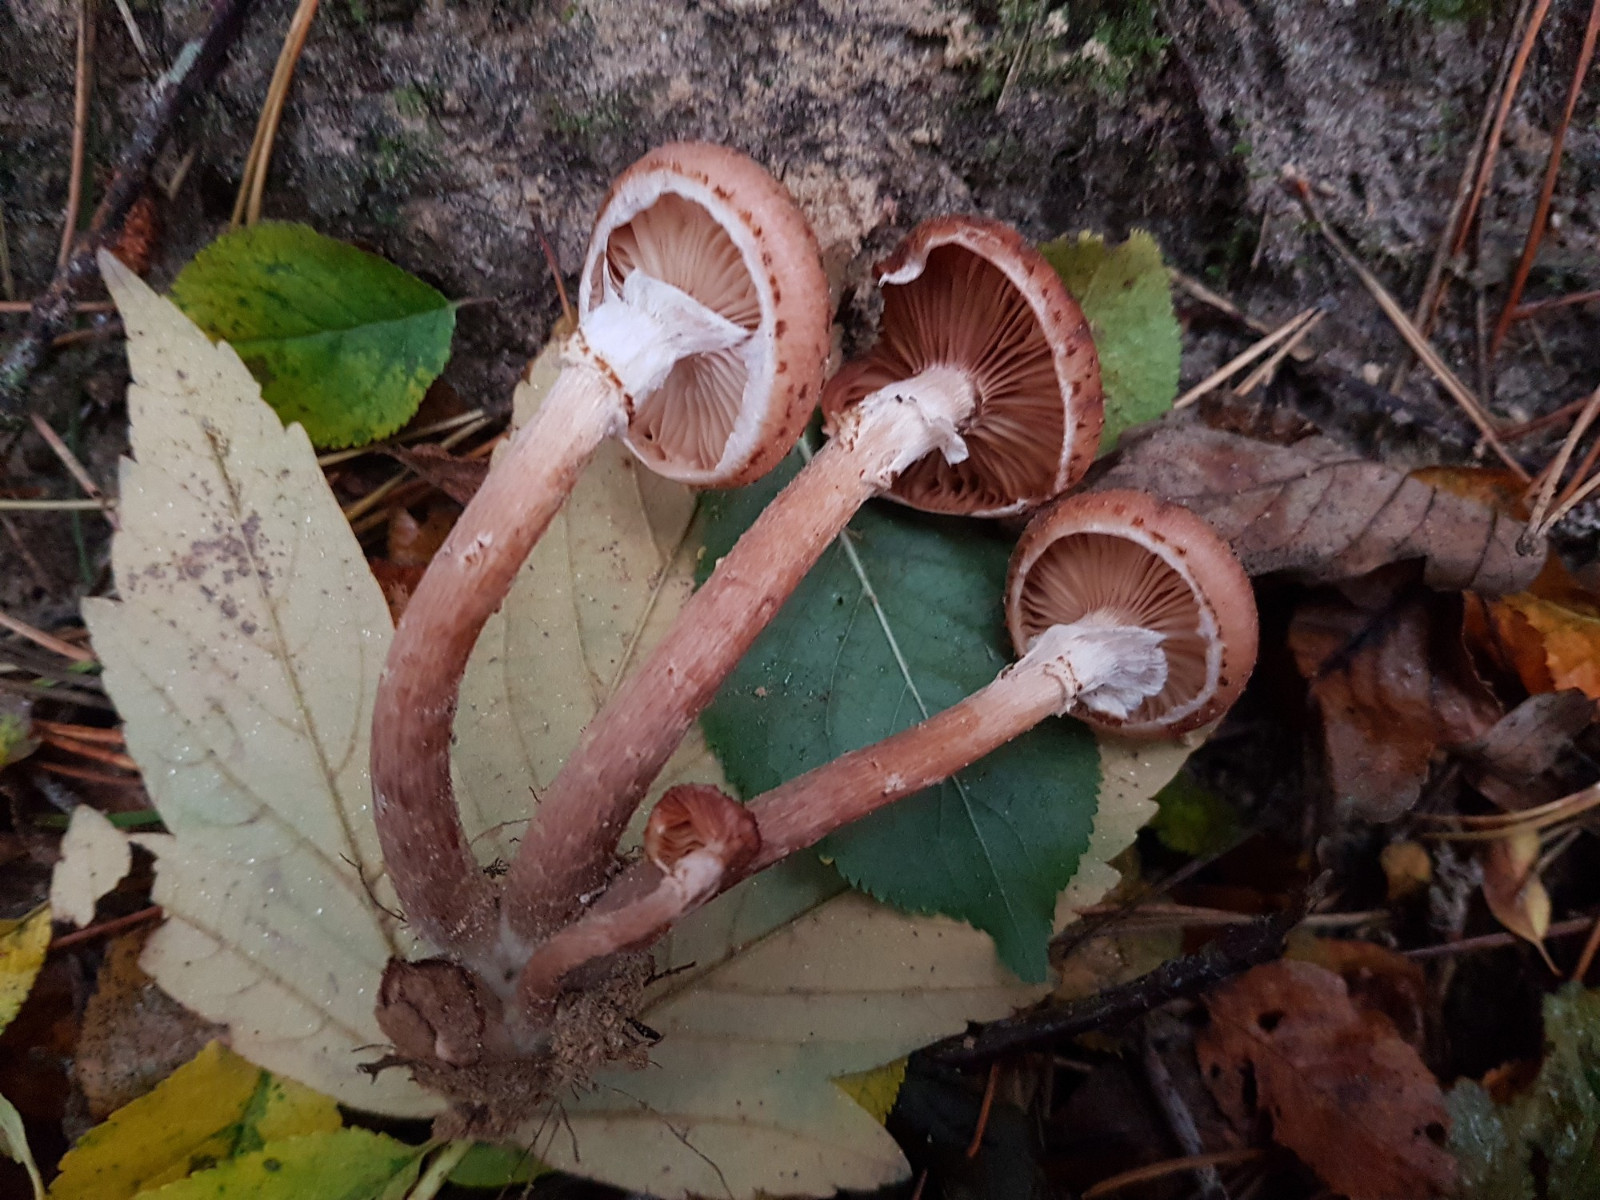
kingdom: Fungi
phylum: Basidiomycota
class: Agaricomycetes
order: Agaricales
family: Physalacriaceae
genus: Armillaria
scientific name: Armillaria ostoyae
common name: mørk honningsvamp
